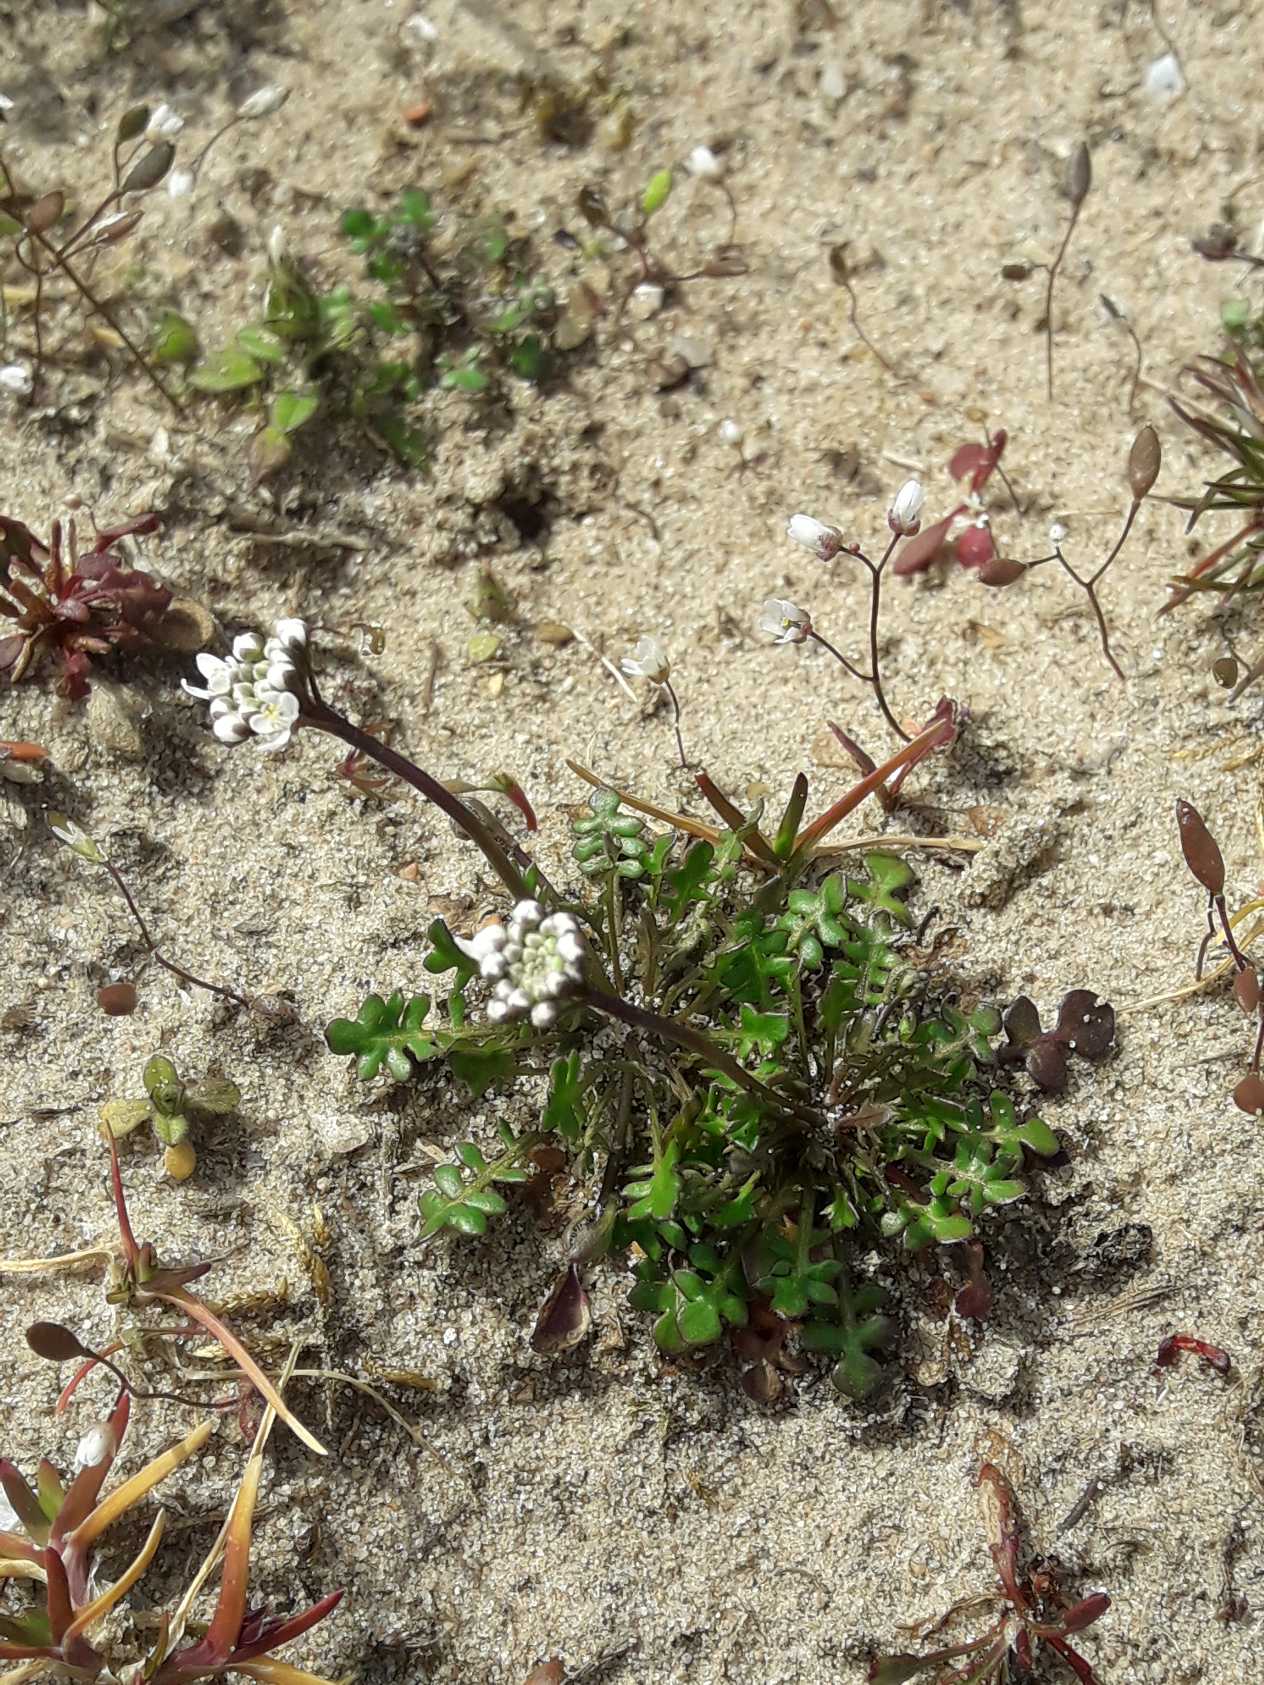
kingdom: Plantae
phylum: Tracheophyta
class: Magnoliopsida
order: Brassicales
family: Brassicaceae
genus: Teesdalia
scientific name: Teesdalia nudicaulis
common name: Flipkrave
